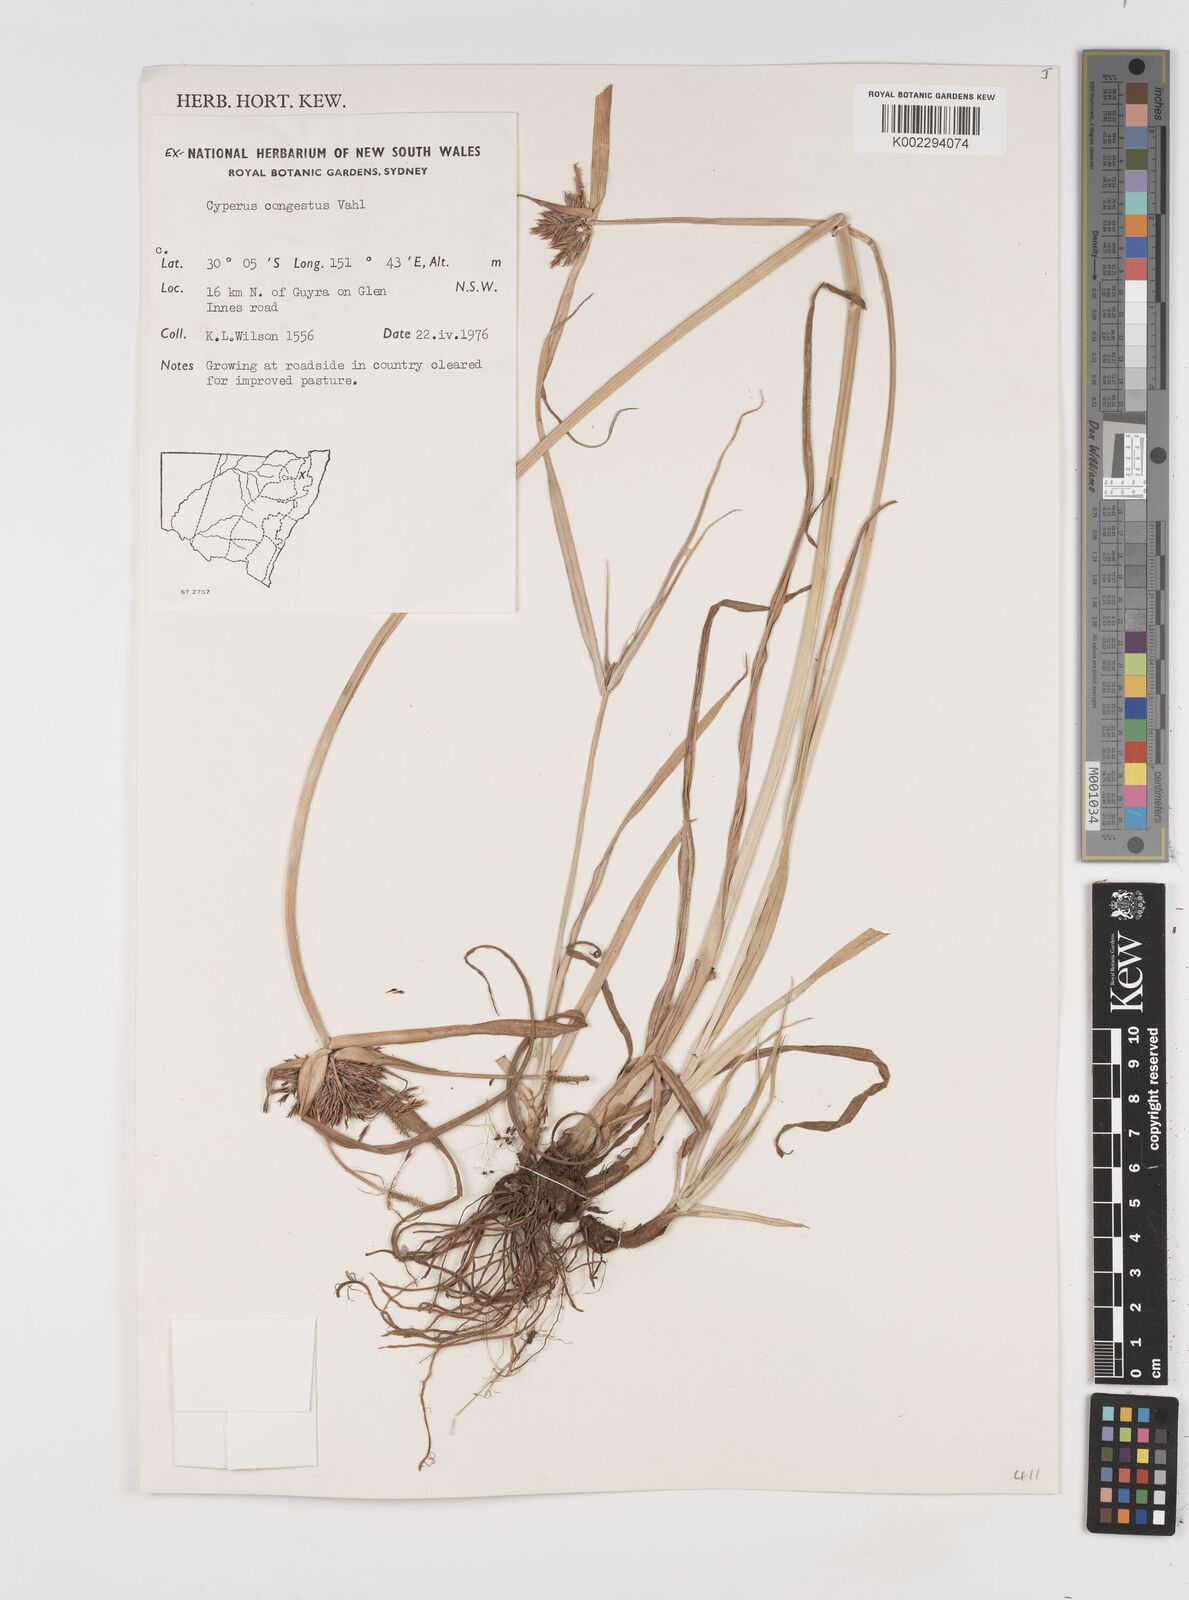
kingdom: Plantae
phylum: Tracheophyta
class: Liliopsida
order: Poales
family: Cyperaceae
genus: Cyperus
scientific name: Cyperus congestus
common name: Dense flat sedge
